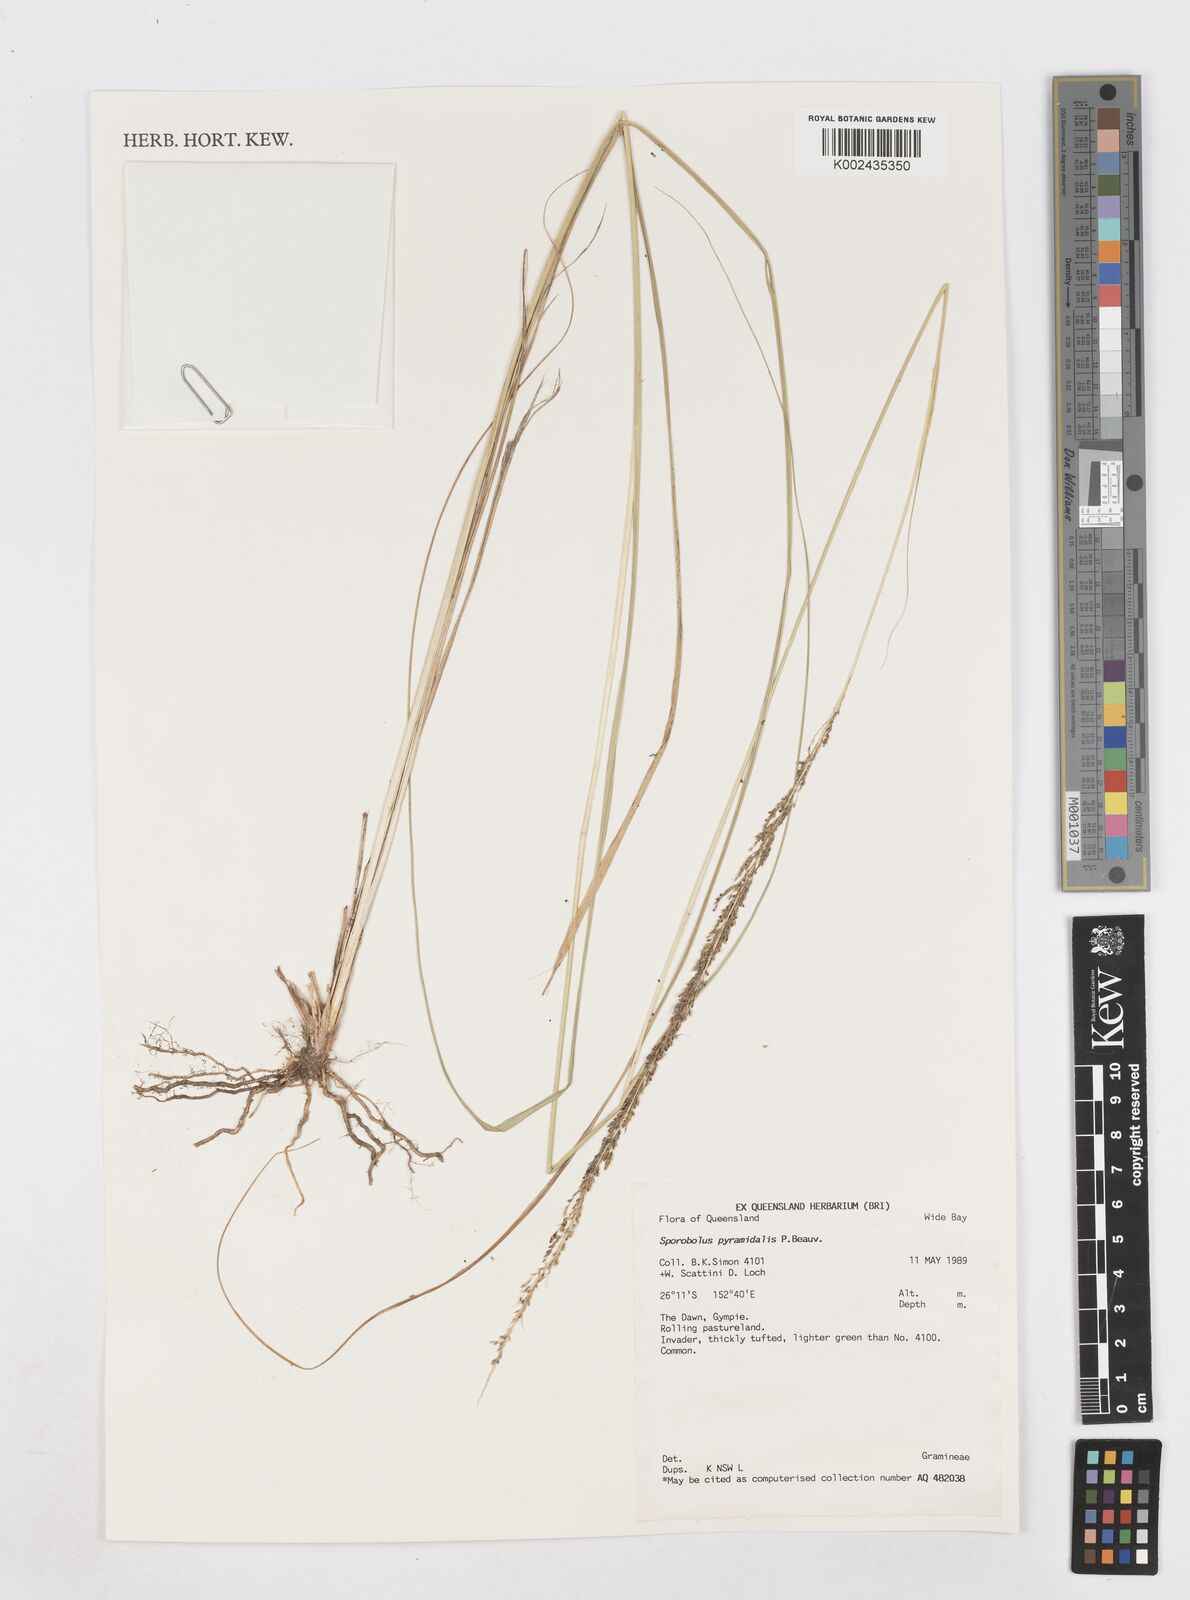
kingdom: Plantae
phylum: Tracheophyta
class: Liliopsida
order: Poales
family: Poaceae
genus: Sporobolus
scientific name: Sporobolus pyramidalis
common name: West indian dropseed
